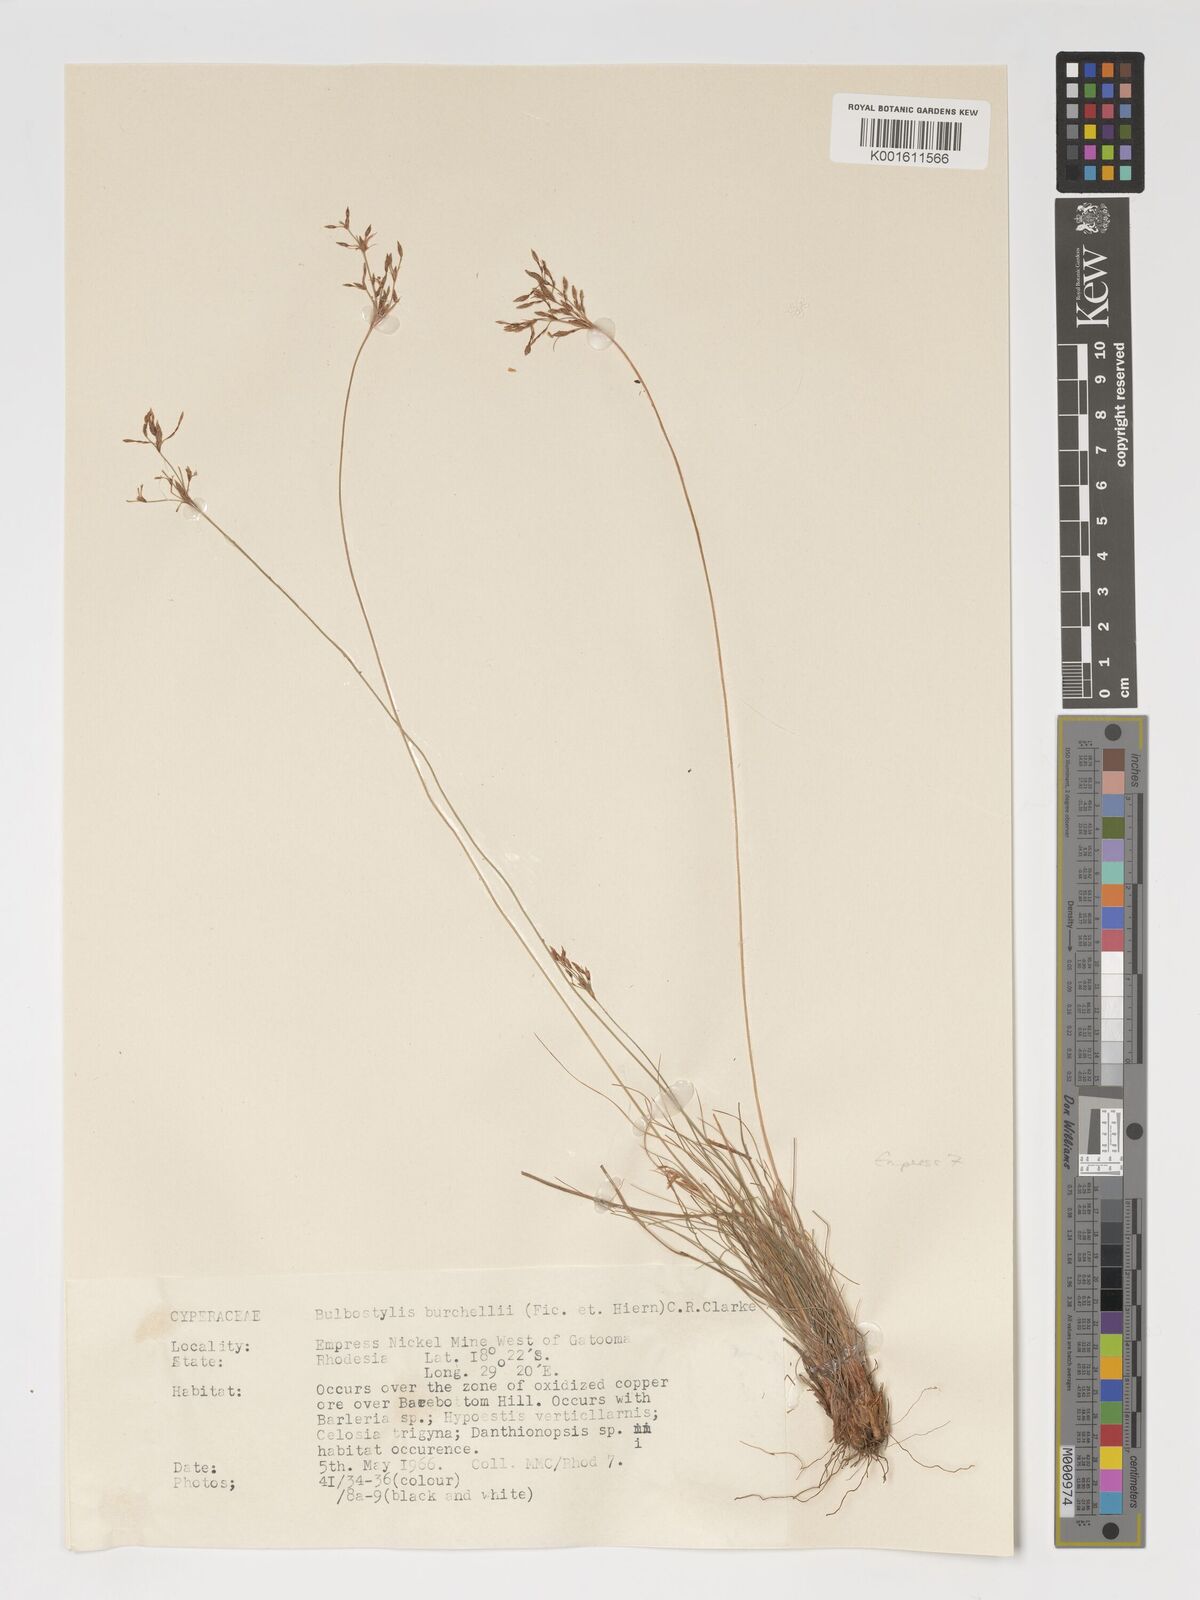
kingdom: Plantae
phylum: Tracheophyta
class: Liliopsida
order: Poales
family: Cyperaceae
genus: Bulbostylis
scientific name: Bulbostylis burchellii
